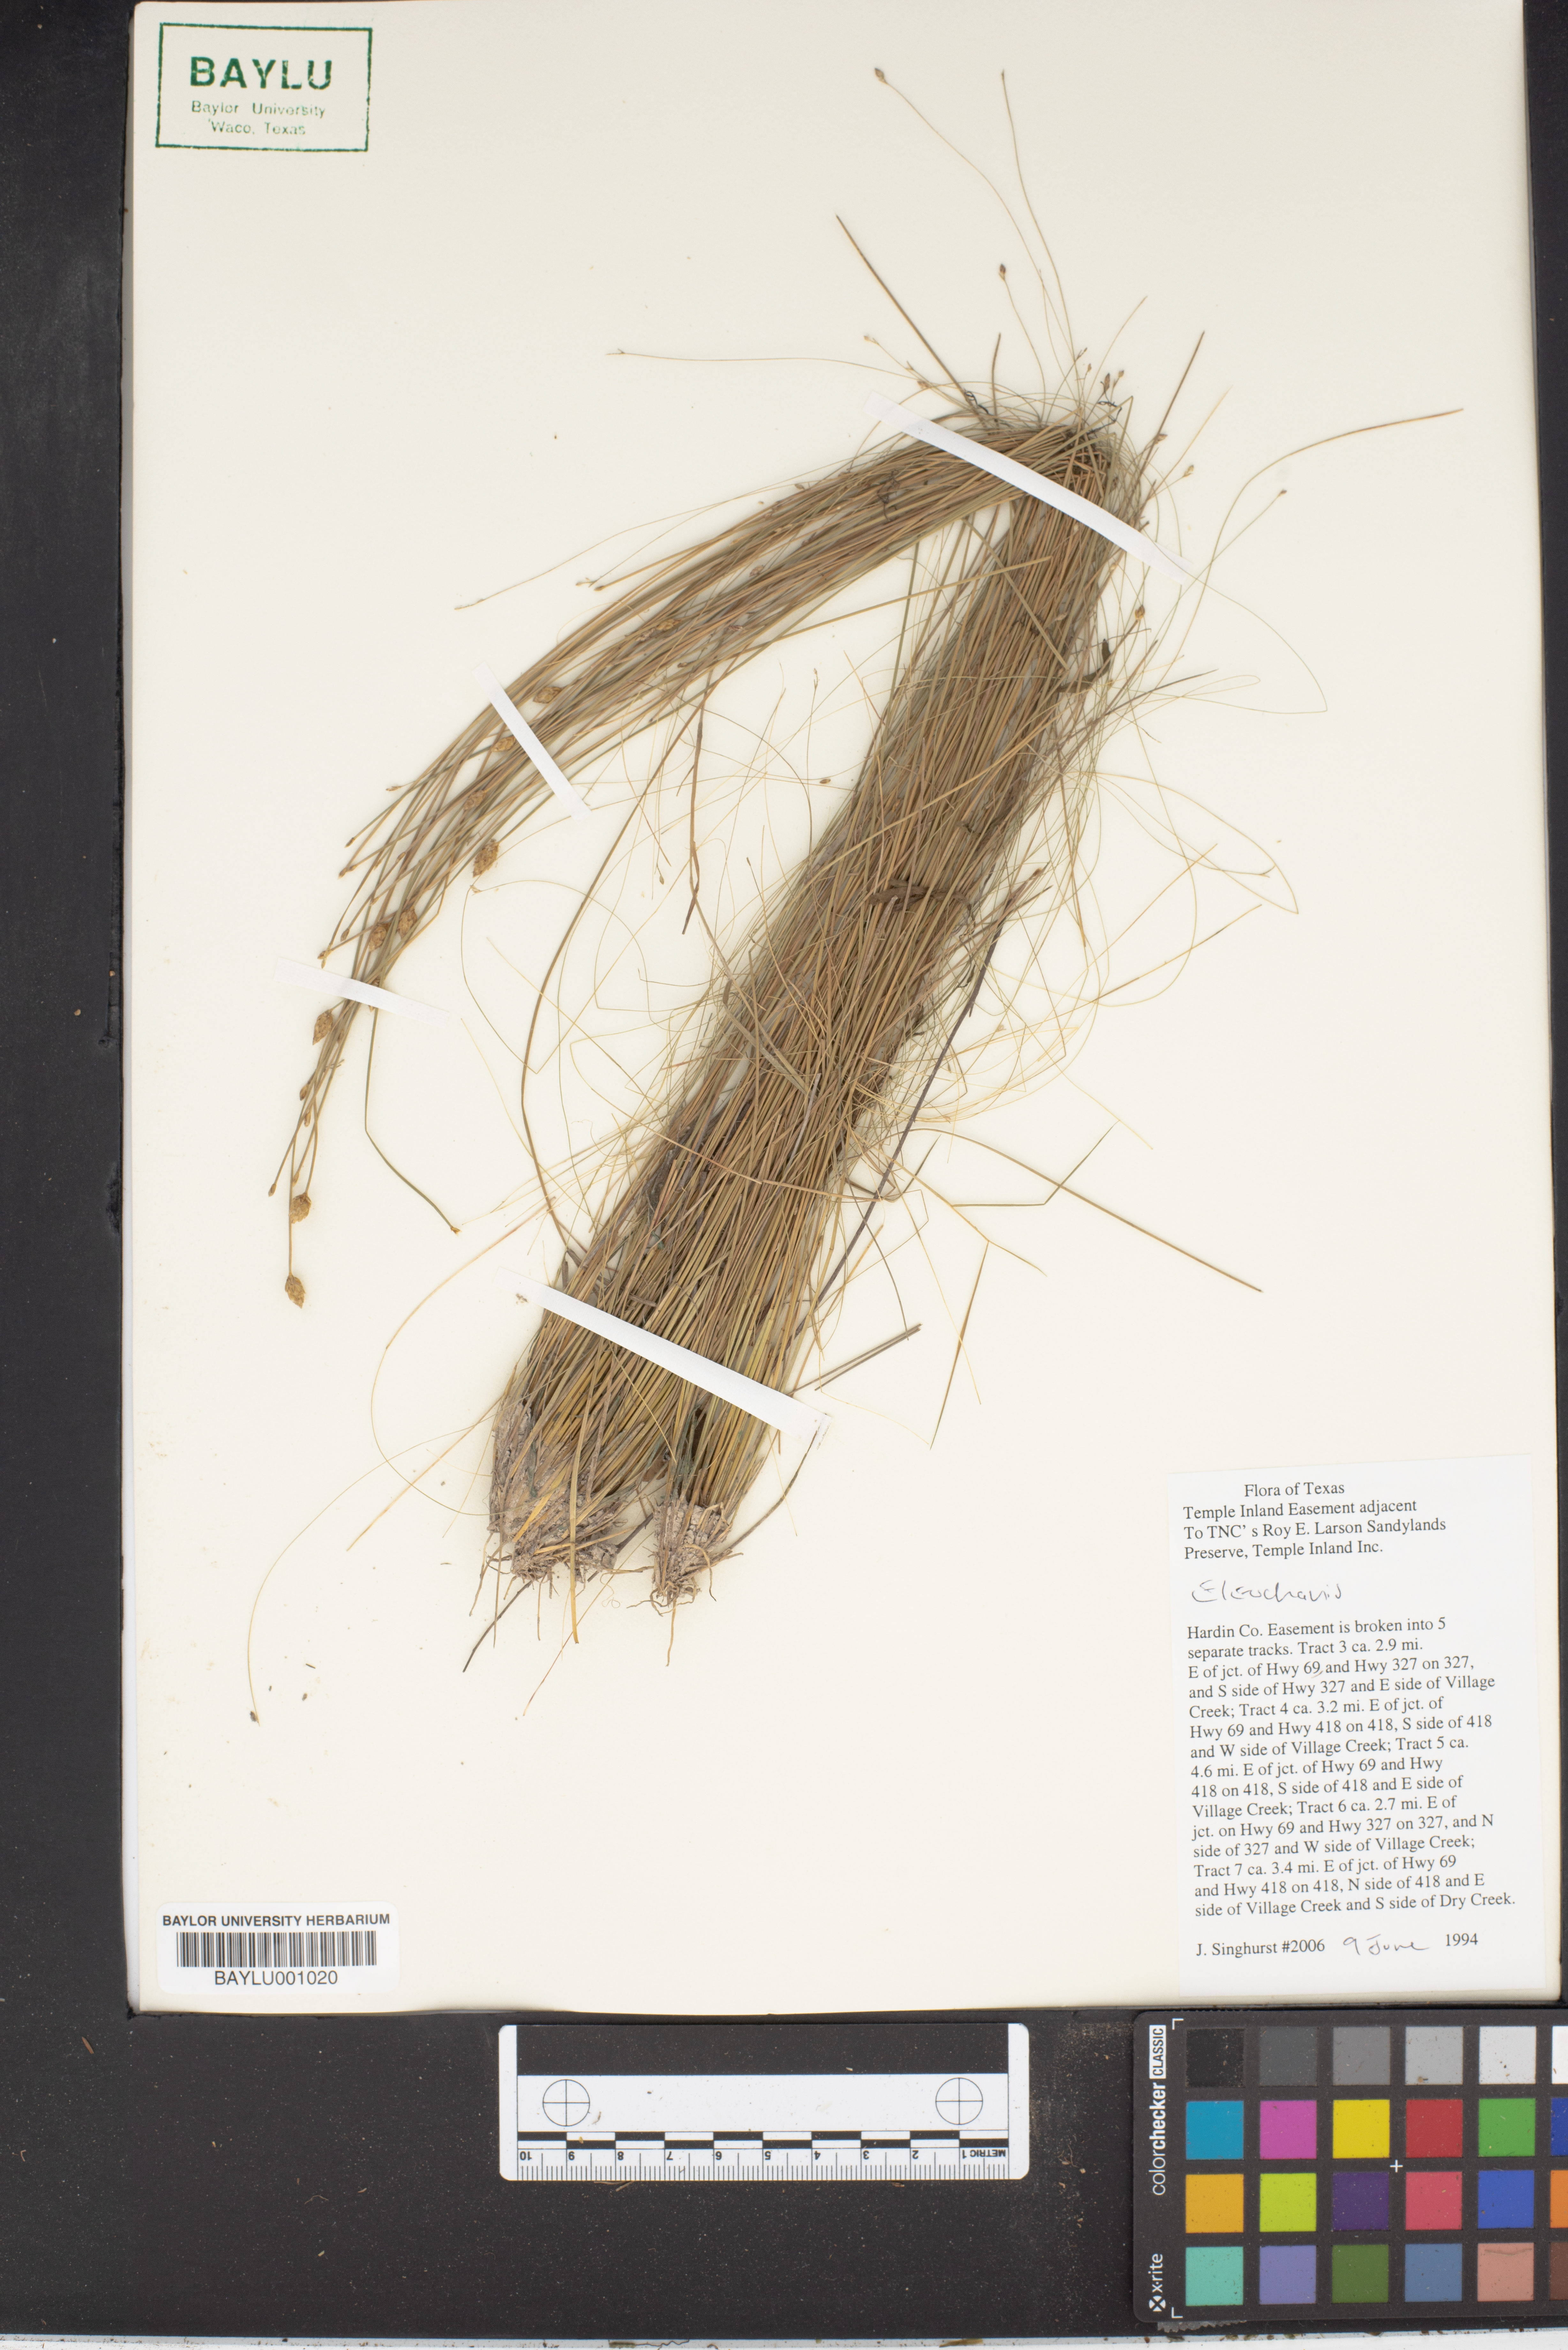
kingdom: Plantae
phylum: Tracheophyta
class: Liliopsida
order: Poales
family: Cyperaceae
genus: Eleocharis
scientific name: Eleocharis
